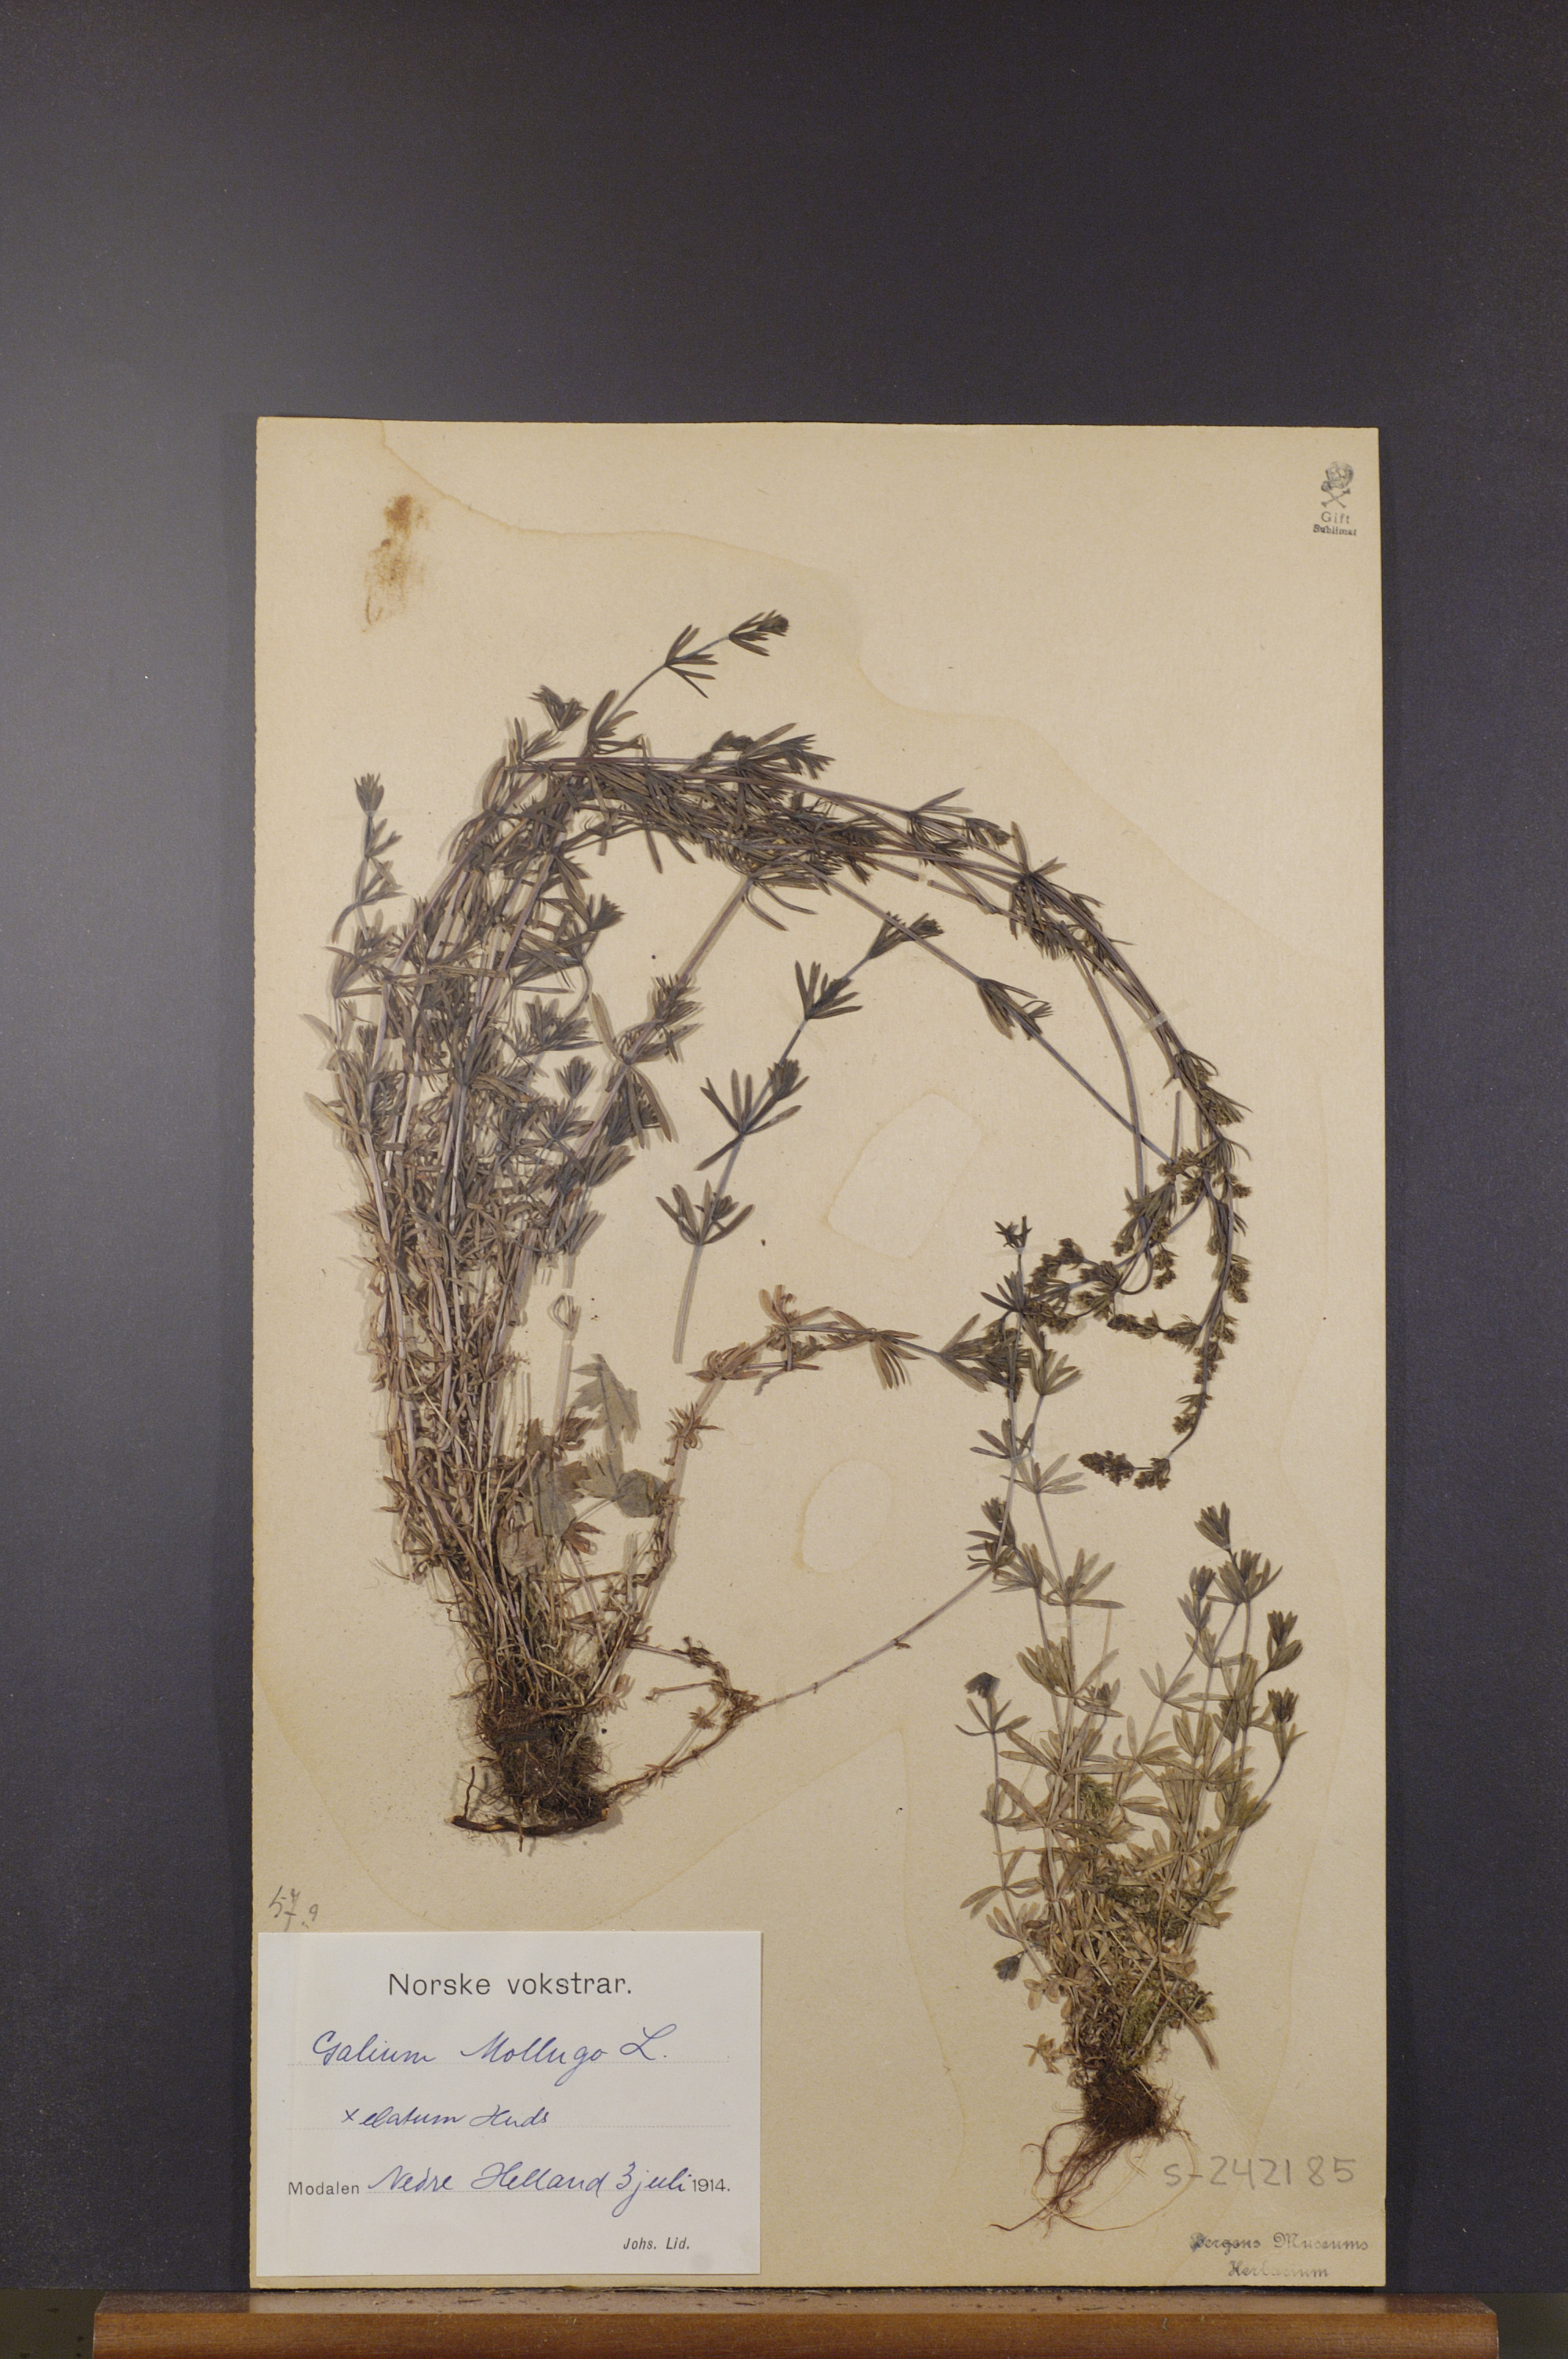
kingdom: Plantae
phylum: Tracheophyta
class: Magnoliopsida
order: Gentianales
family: Rubiaceae
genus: Galium
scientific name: Galium mollugo
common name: Hedge bedstraw
